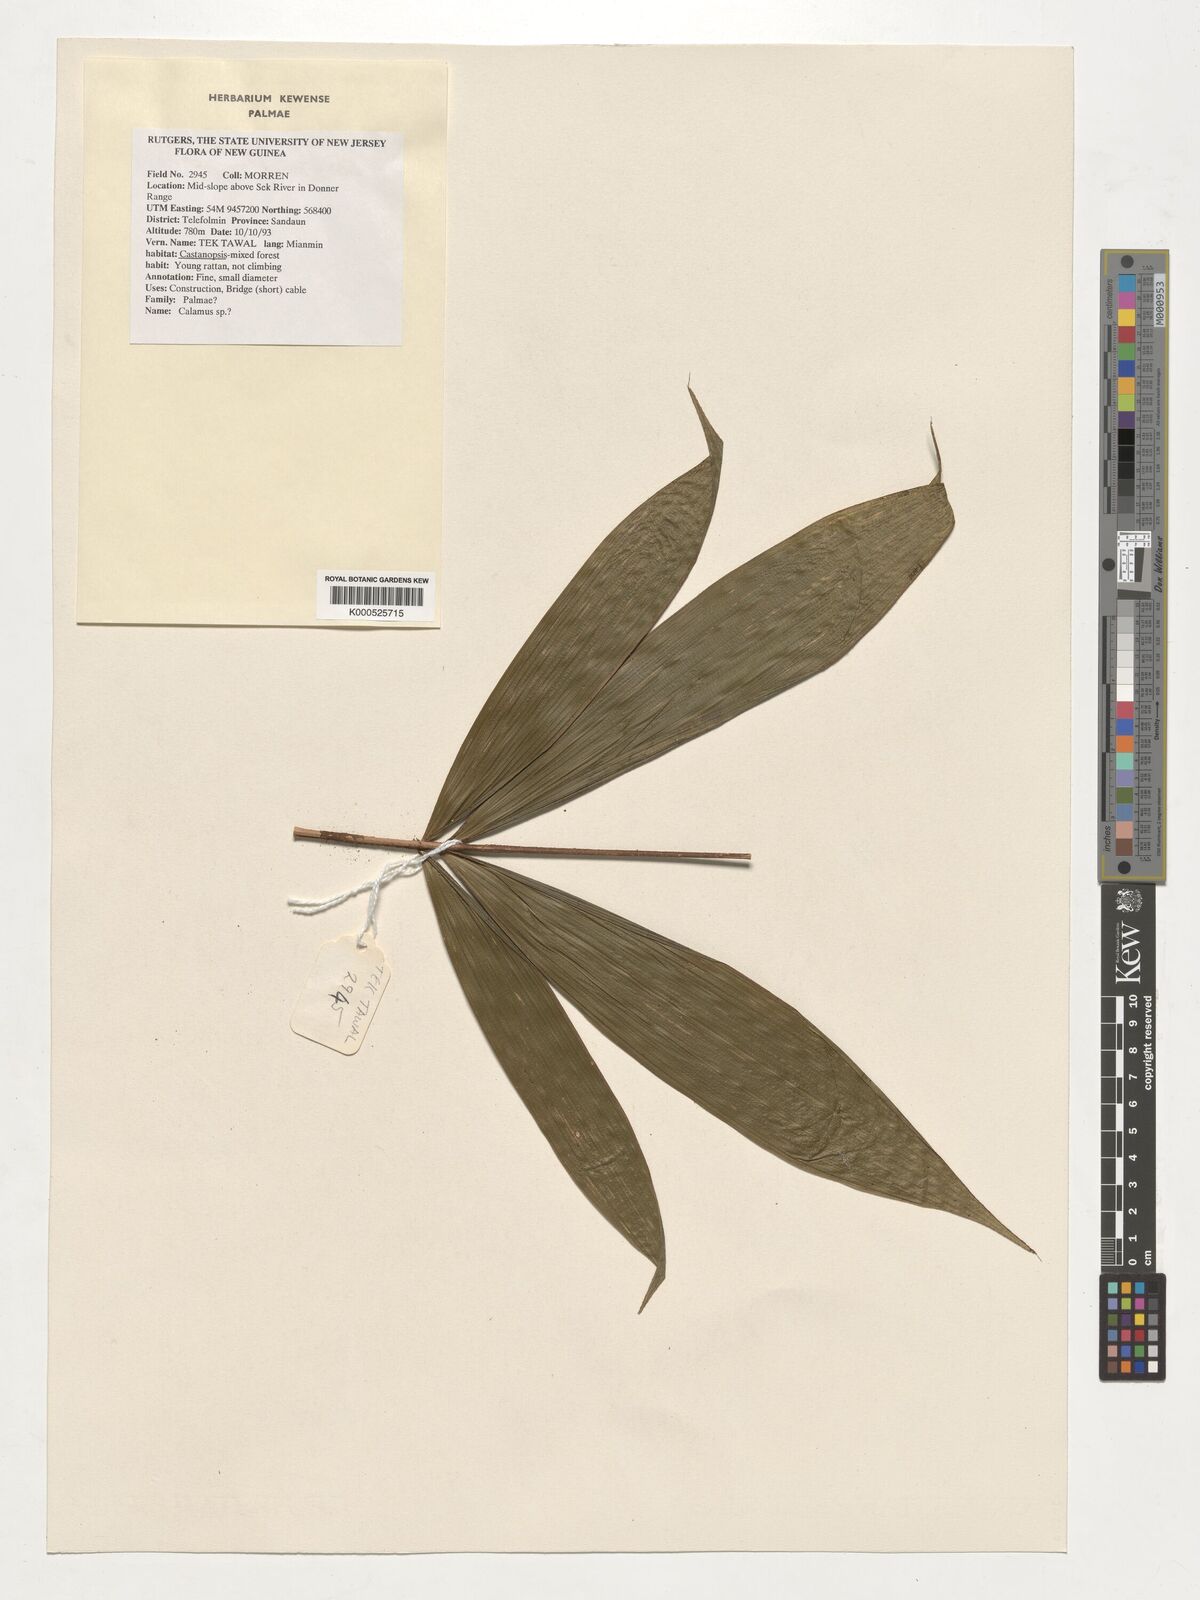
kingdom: Plantae
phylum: Tracheophyta
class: Liliopsida
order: Arecales
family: Arecaceae
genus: Calamus
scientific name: Calamus
